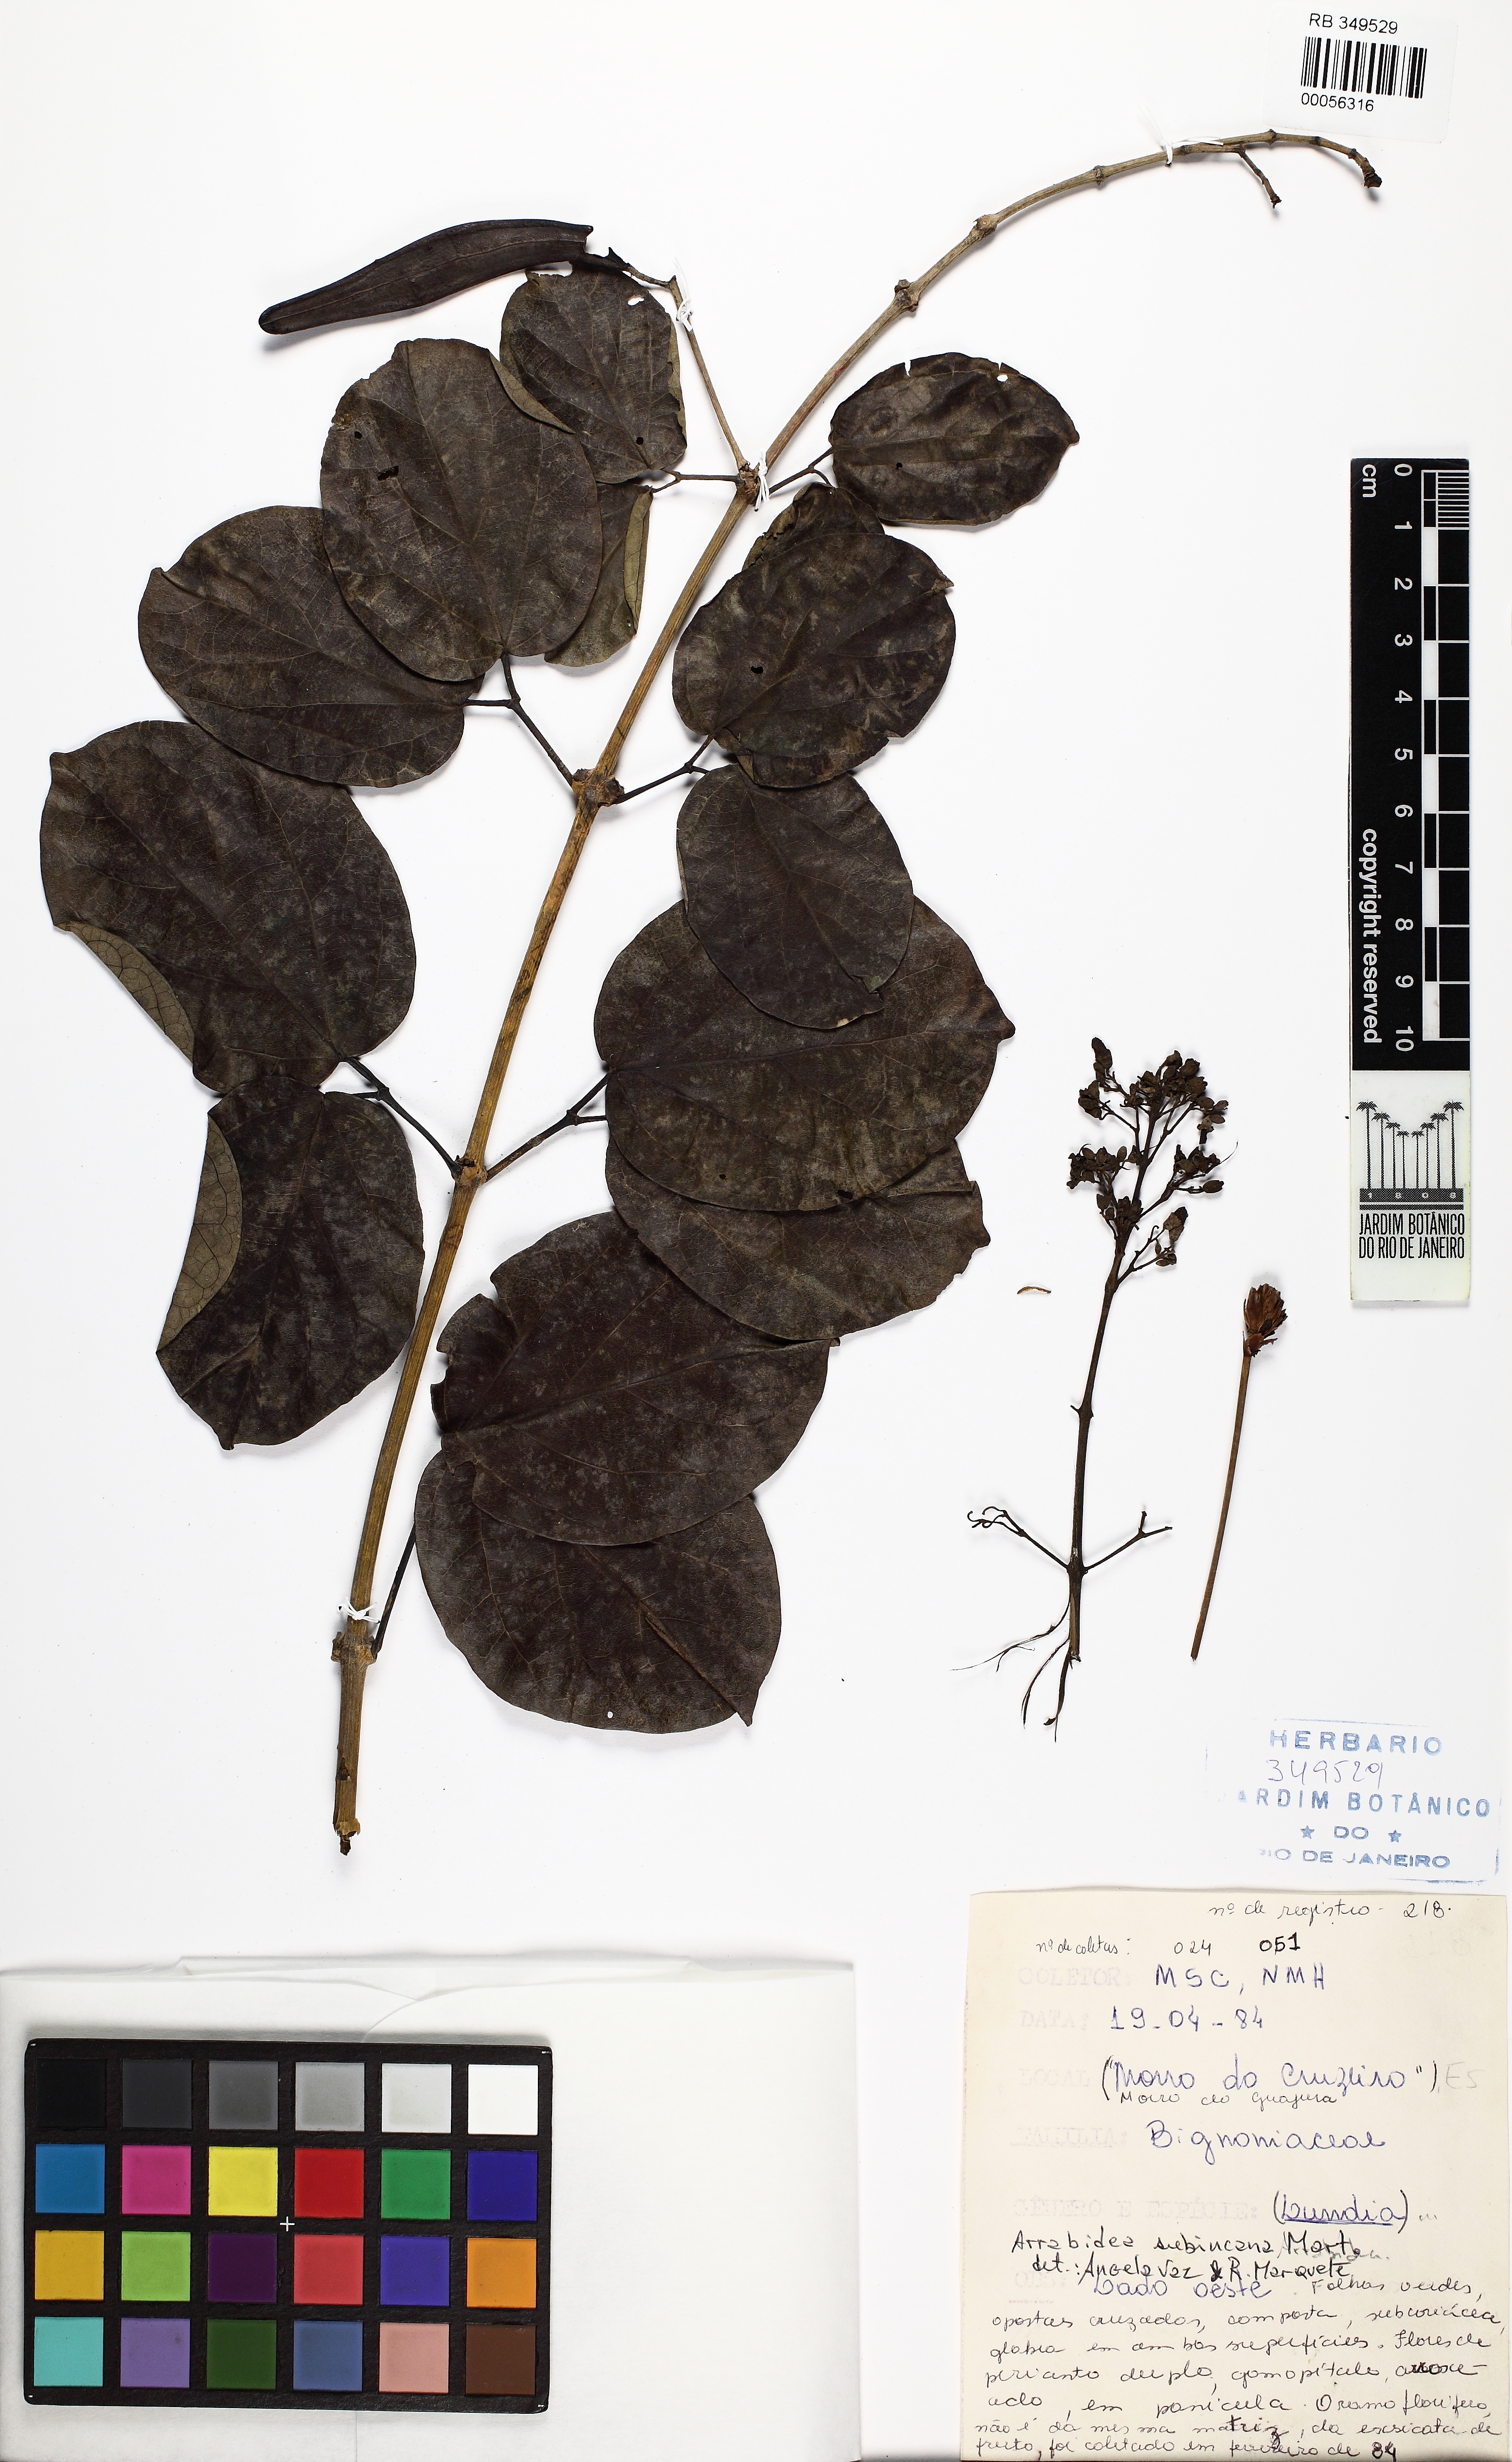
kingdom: Plantae
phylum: Tracheophyta
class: Magnoliopsida
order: Lamiales
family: Bignoniaceae
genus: Fridericia
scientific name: Fridericia subincana
